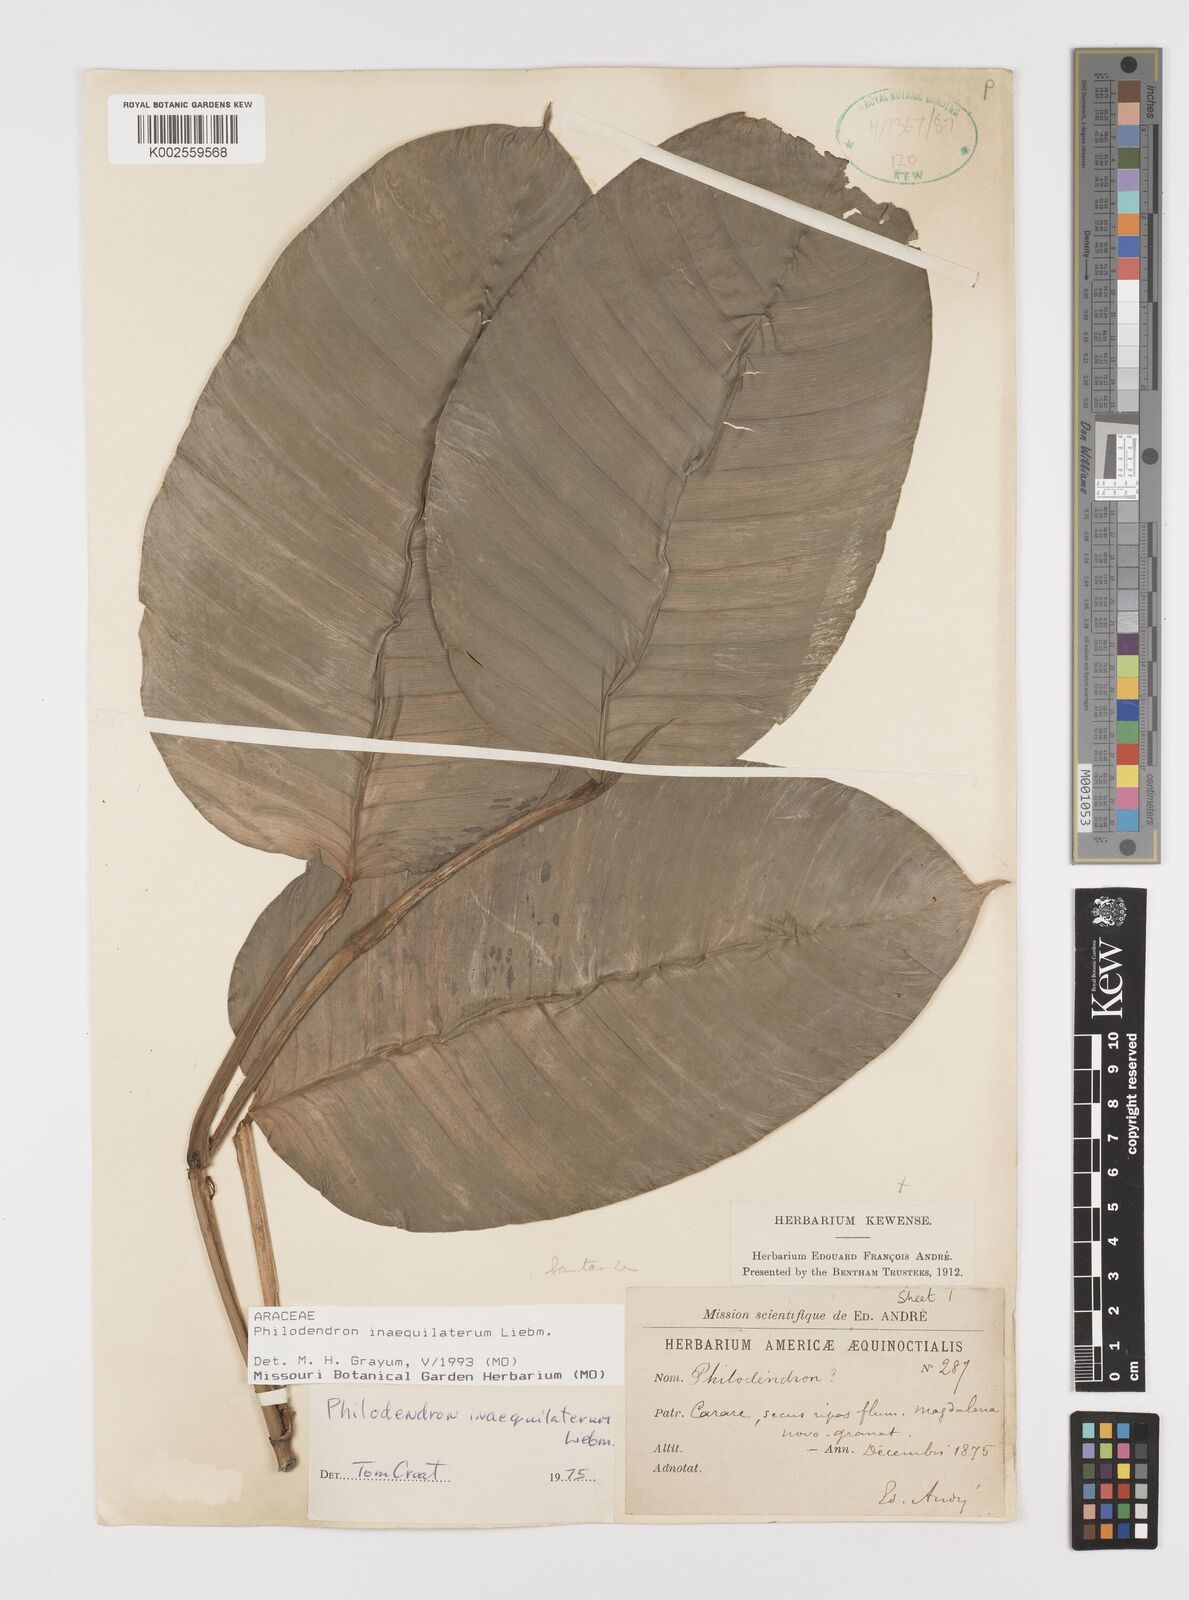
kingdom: Plantae
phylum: Tracheophyta
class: Liliopsida
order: Alismatales
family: Araceae
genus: Philodendron
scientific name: Philodendron inaequilaterum
